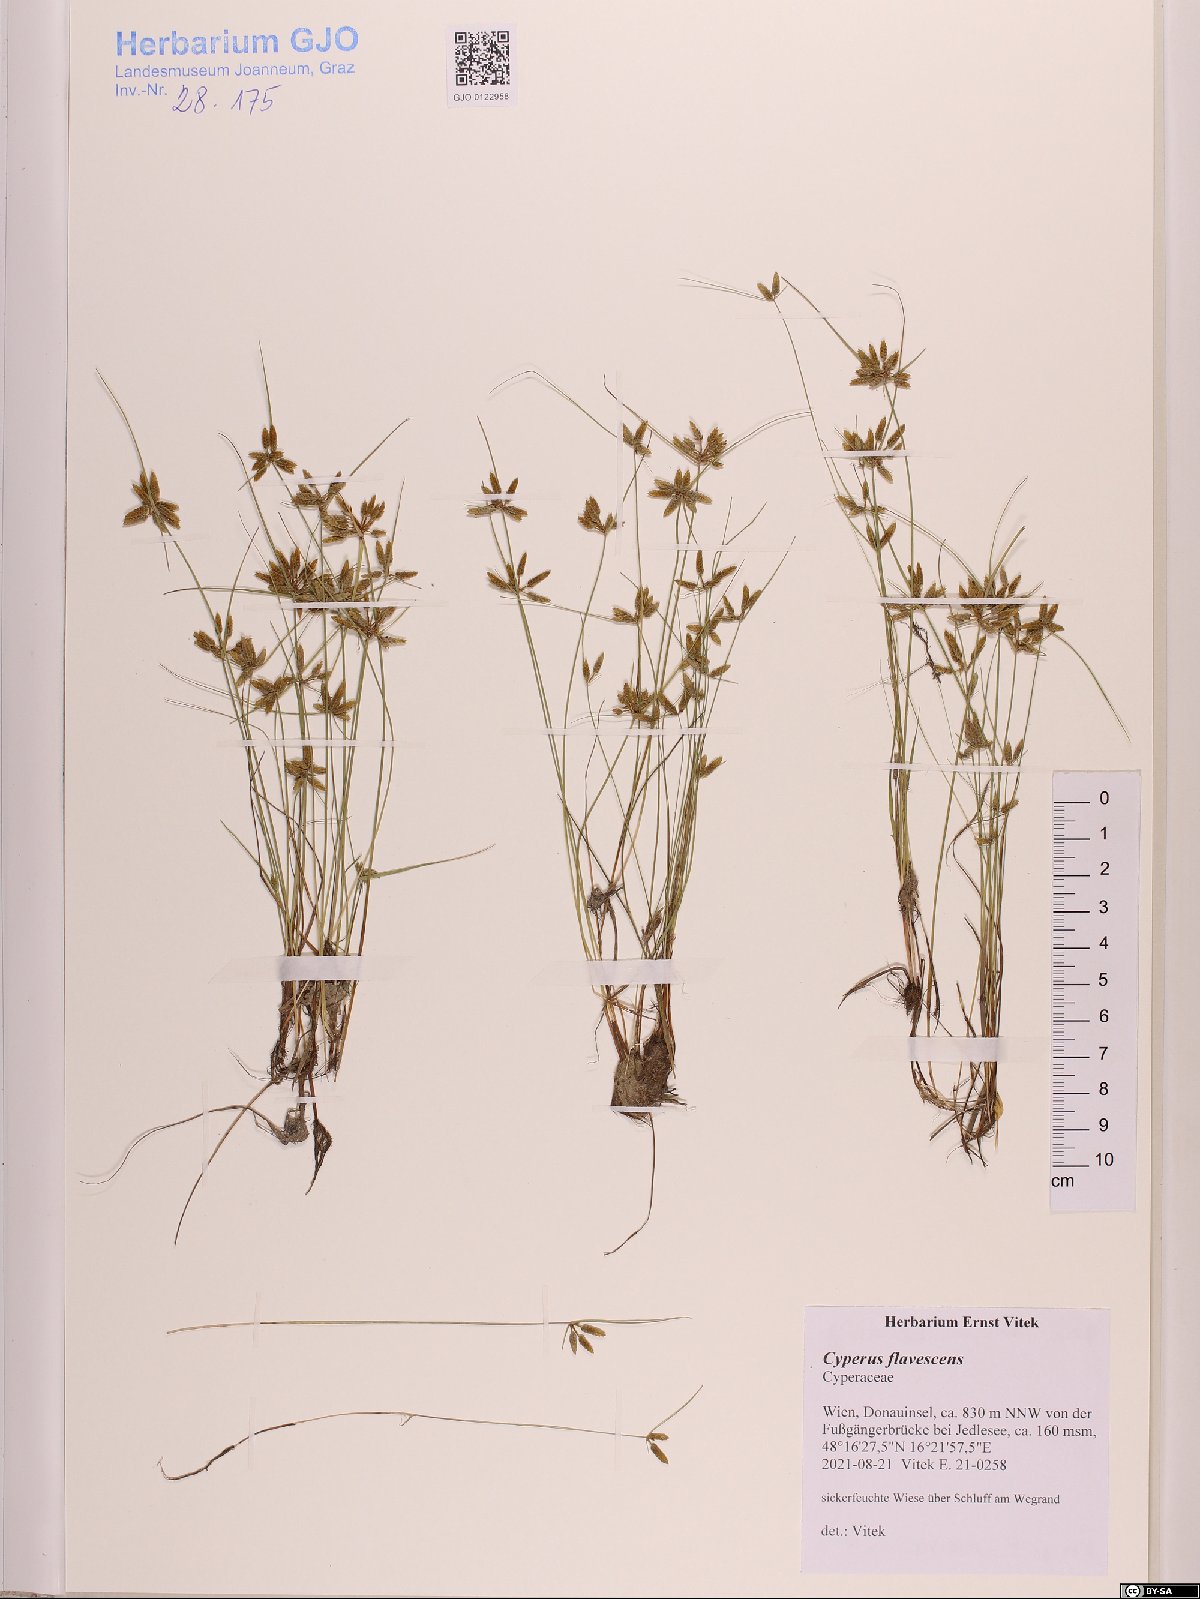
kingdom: Plantae
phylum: Tracheophyta
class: Liliopsida
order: Poales
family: Cyperaceae
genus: Cyperus
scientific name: Cyperus flavescens
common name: Yellow galingale
